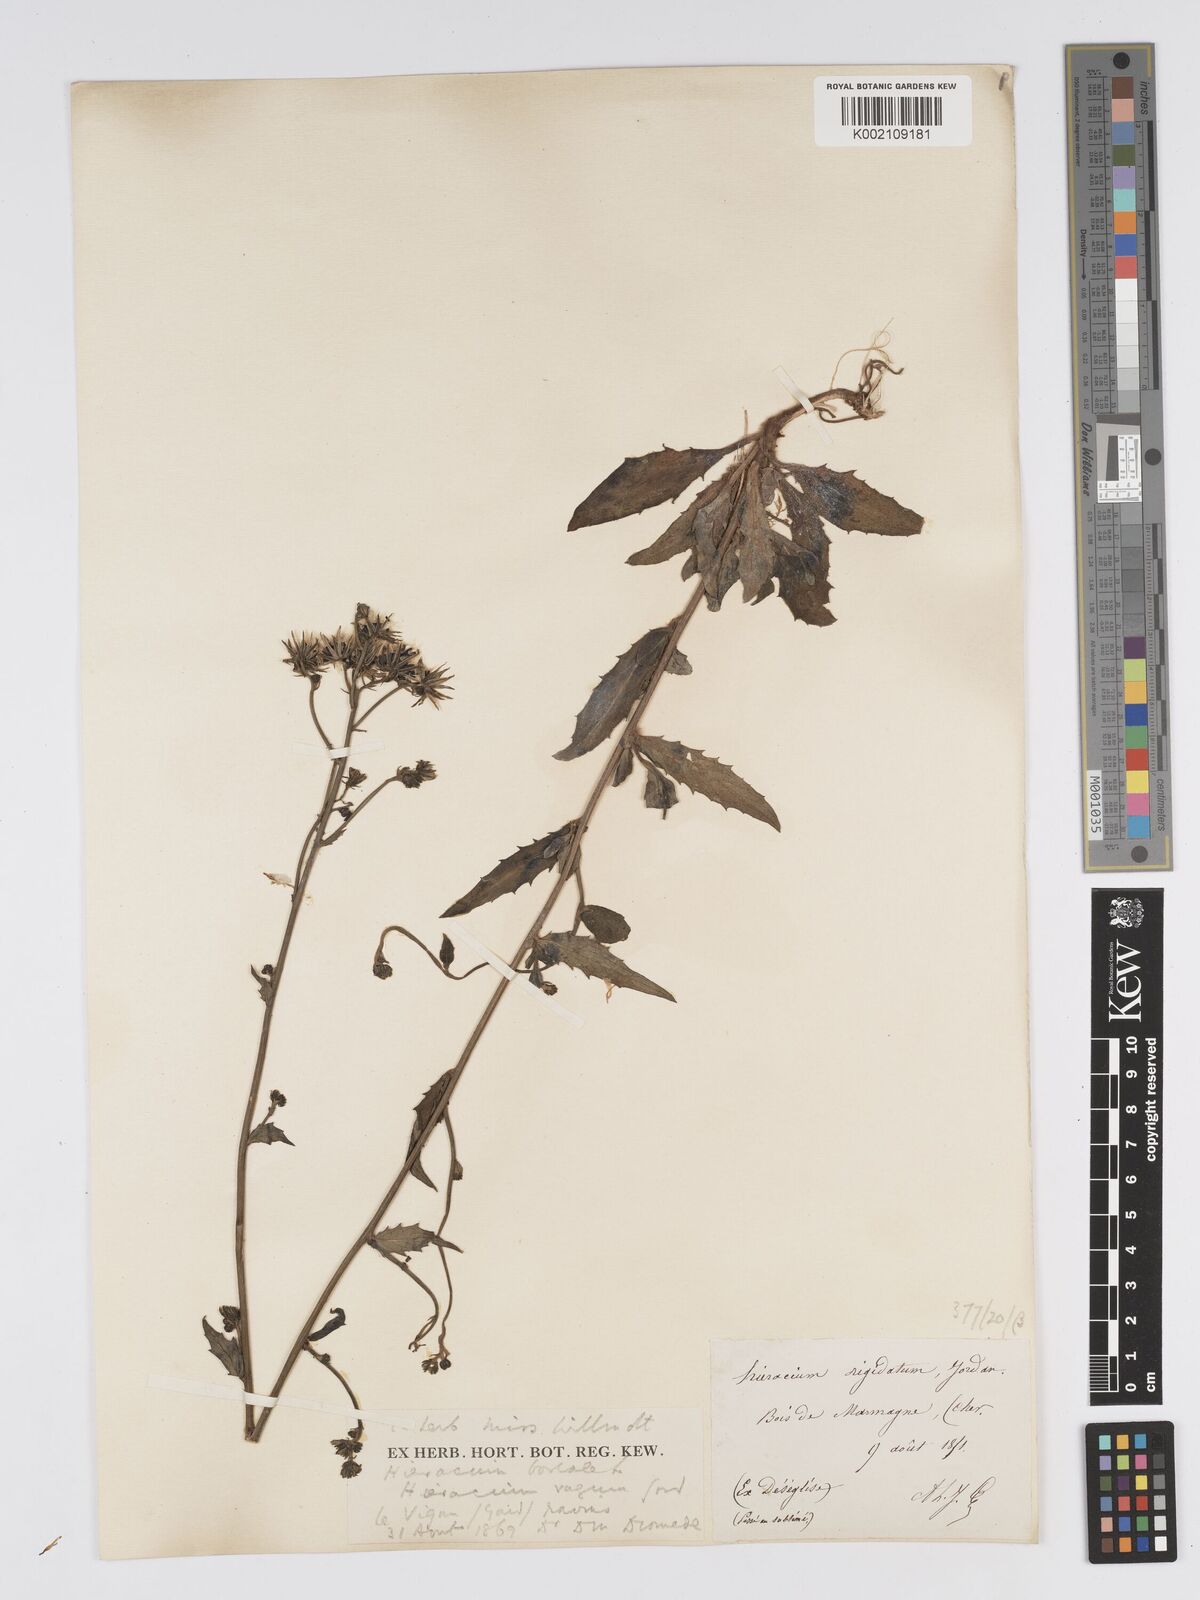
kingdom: Plantae
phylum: Tracheophyta
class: Magnoliopsida
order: Asterales
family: Asteraceae
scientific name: Asteraceae
